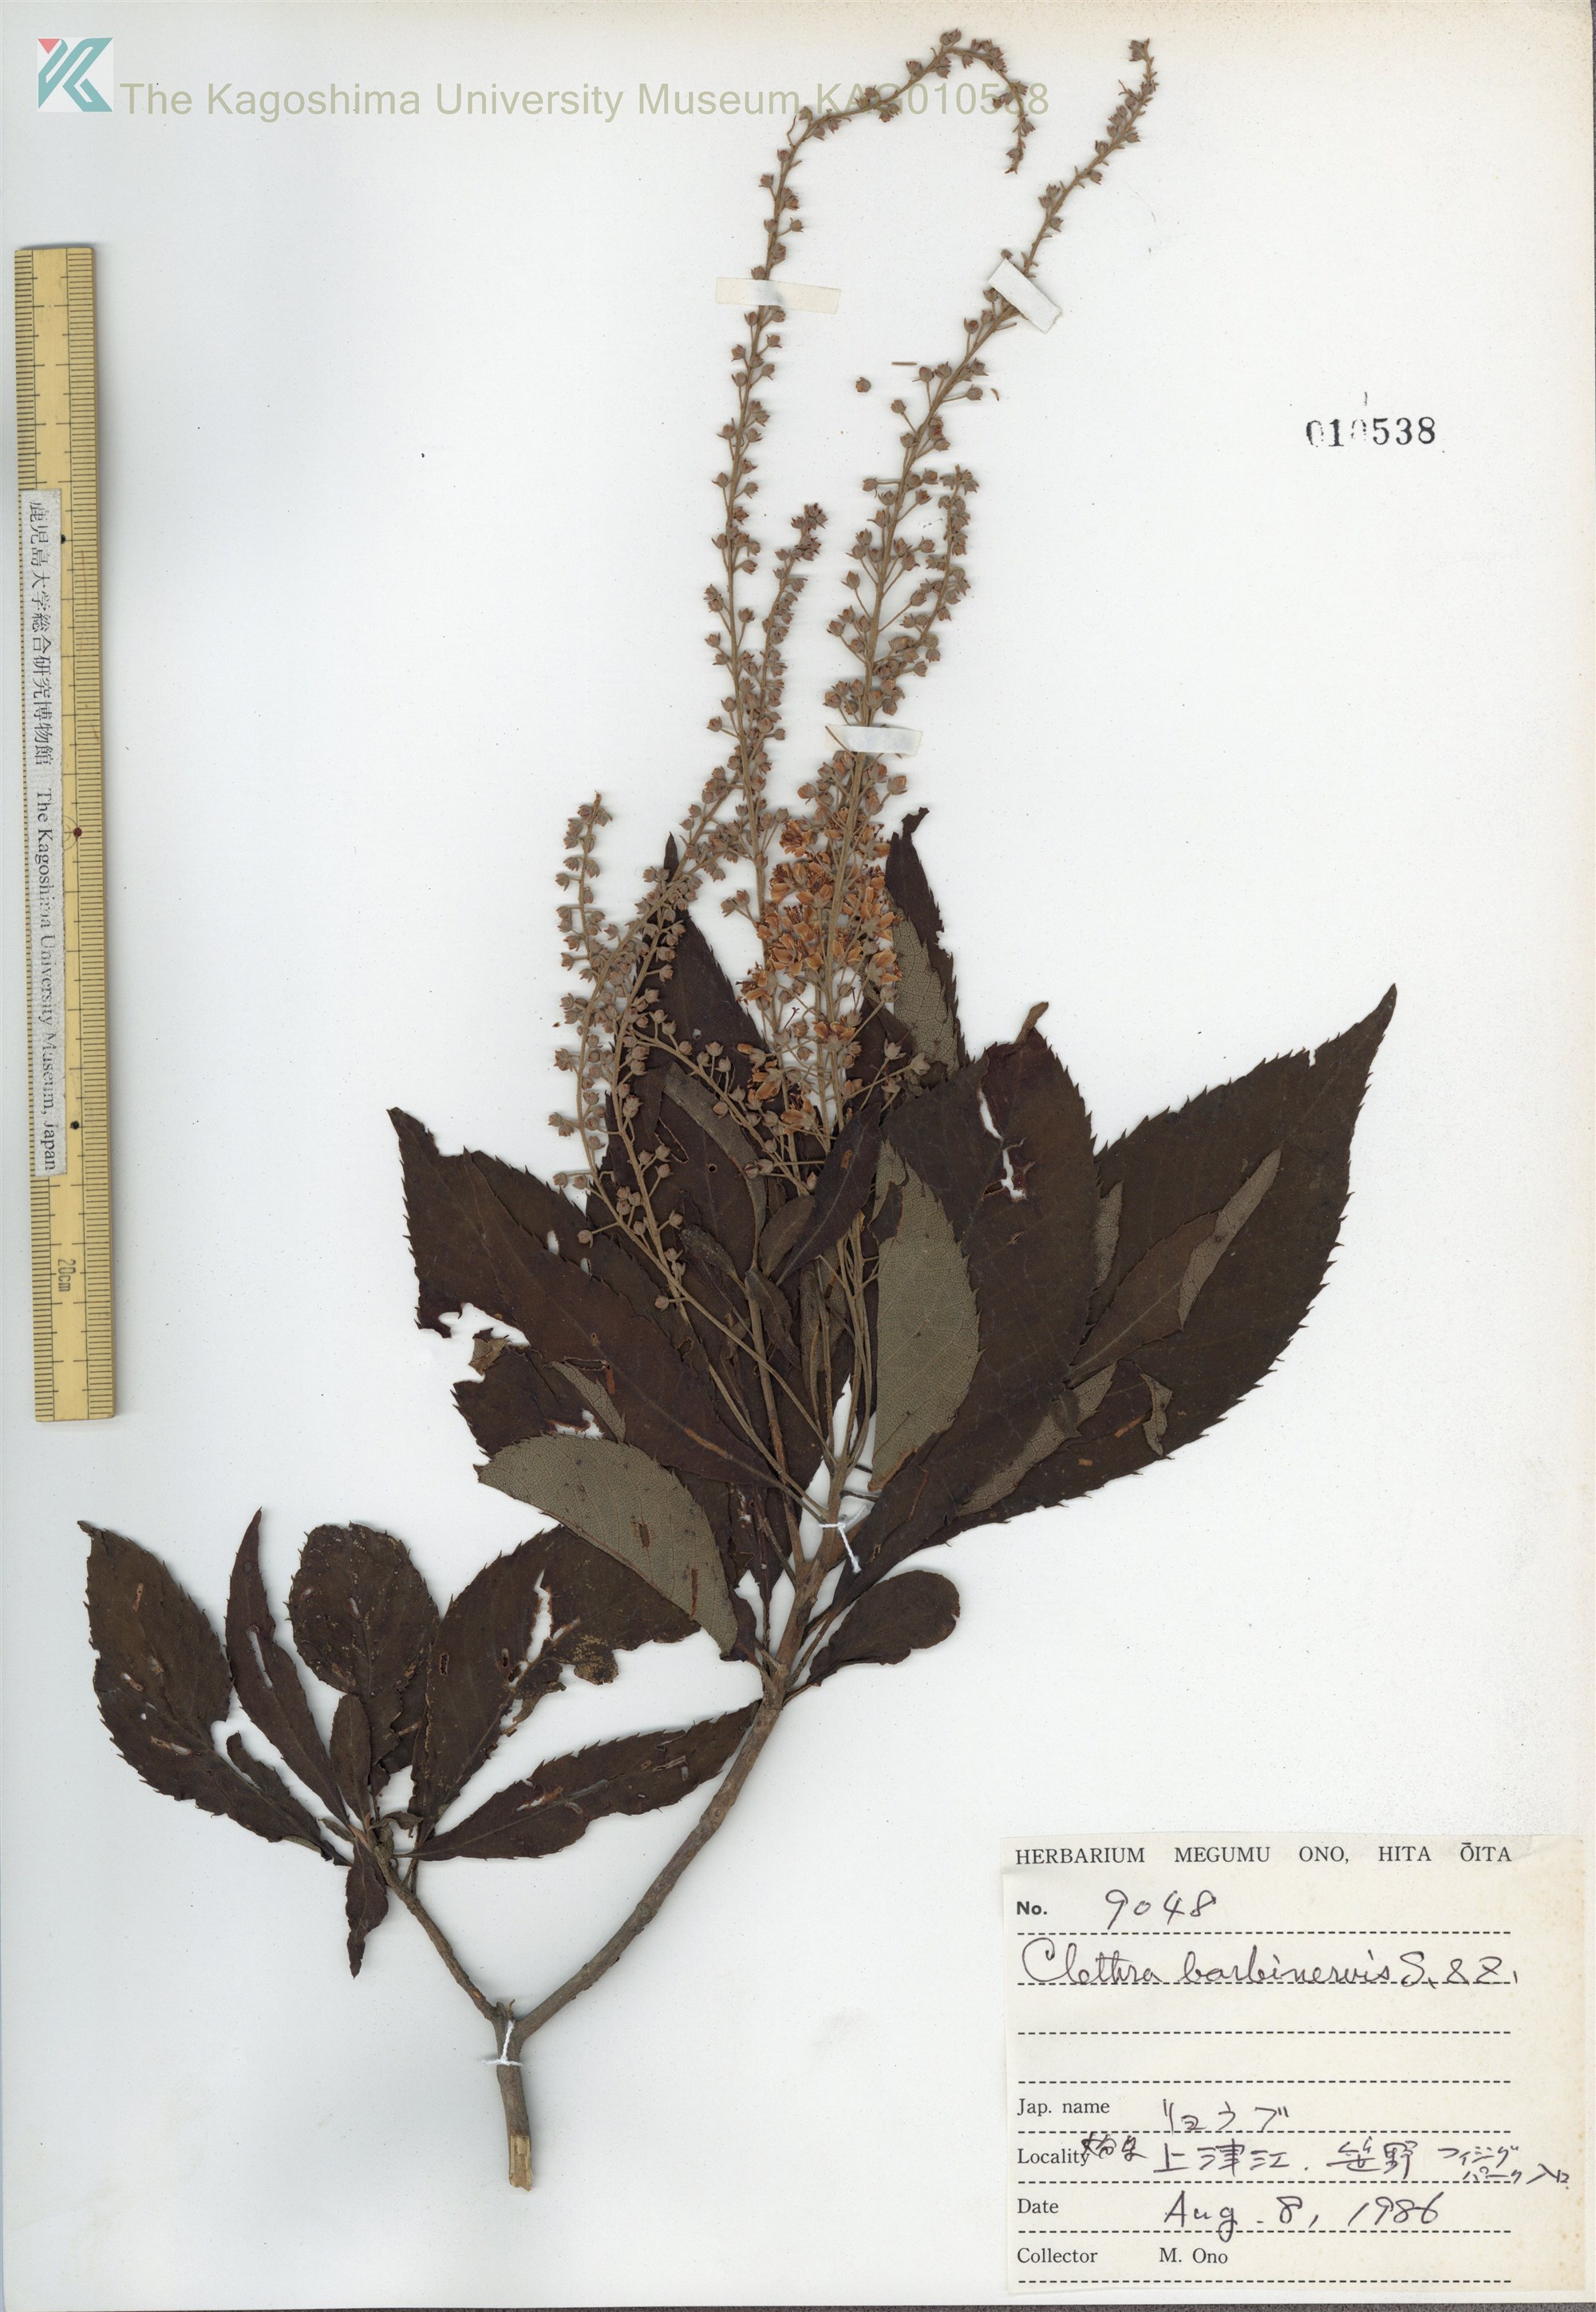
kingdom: Plantae
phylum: Tracheophyta
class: Magnoliopsida
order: Ericales
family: Clethraceae
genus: Clethra
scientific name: Clethra barbinervis
